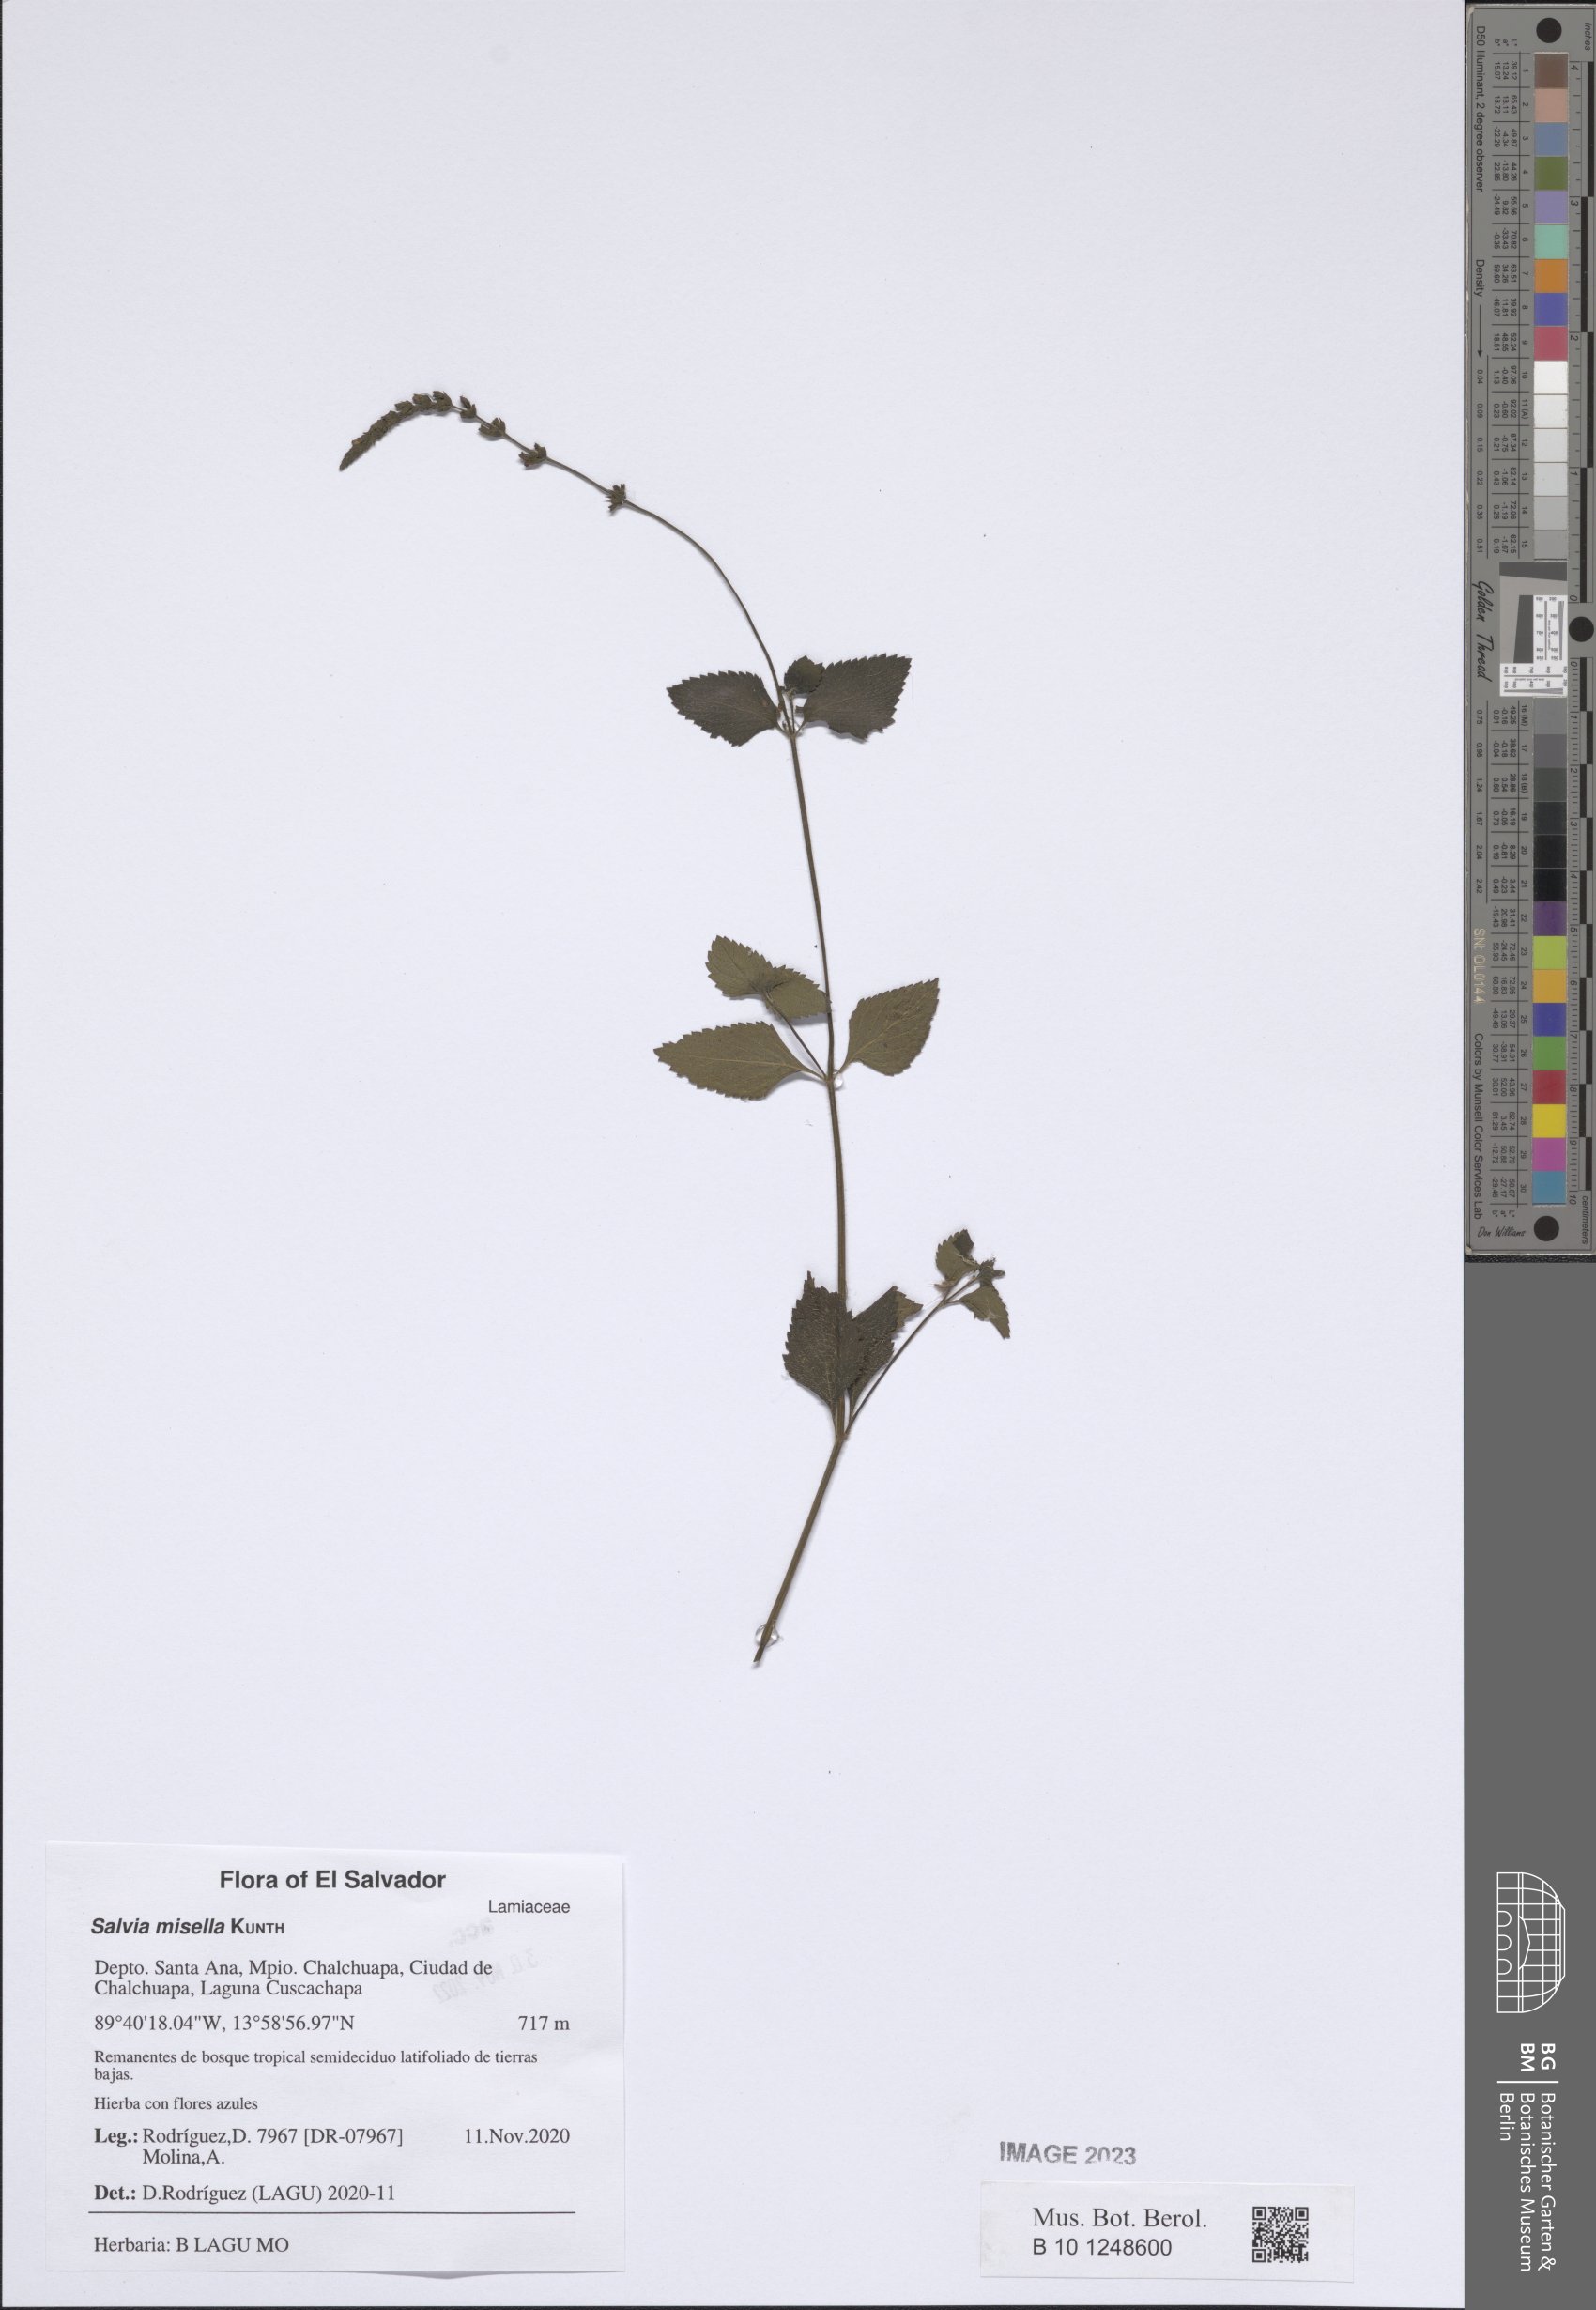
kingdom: Plantae
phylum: Tracheophyta
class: Magnoliopsida
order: Lamiales
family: Lamiaceae
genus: Salvia
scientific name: Salvia misella
